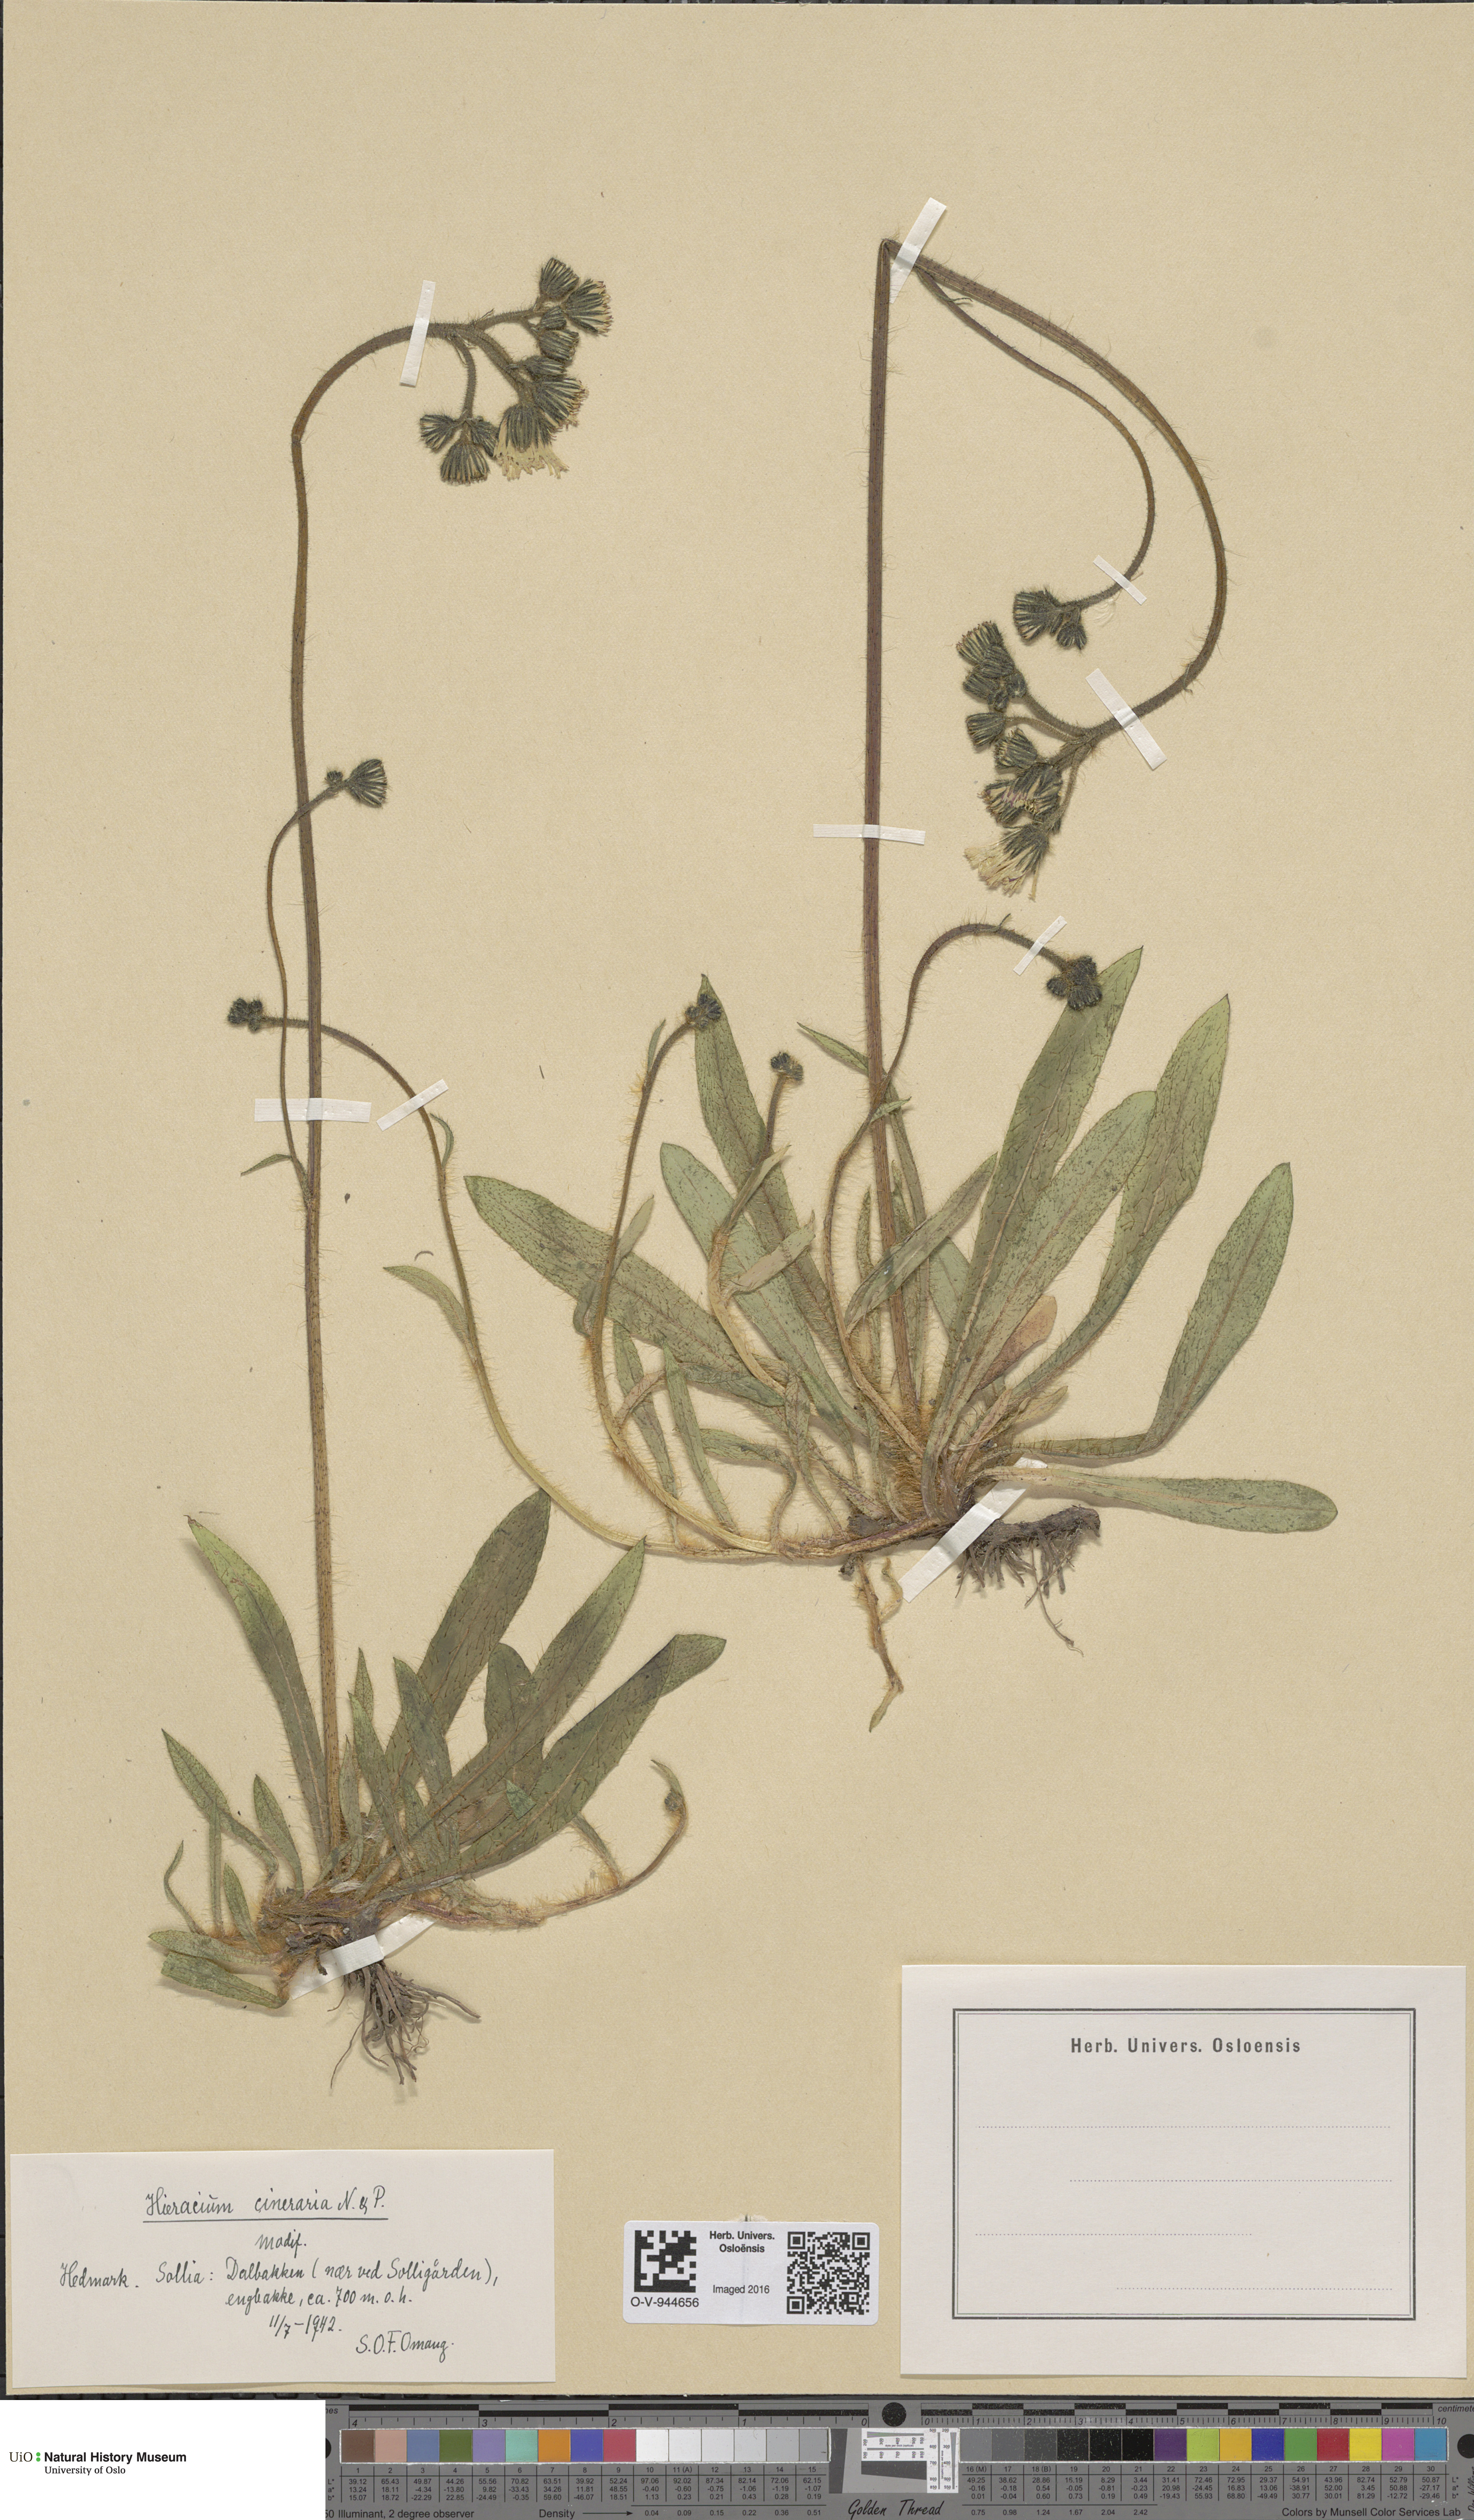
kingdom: Plantae
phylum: Tracheophyta
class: Magnoliopsida
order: Asterales
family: Asteraceae
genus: Pilosella
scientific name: Pilosella moechiadia
